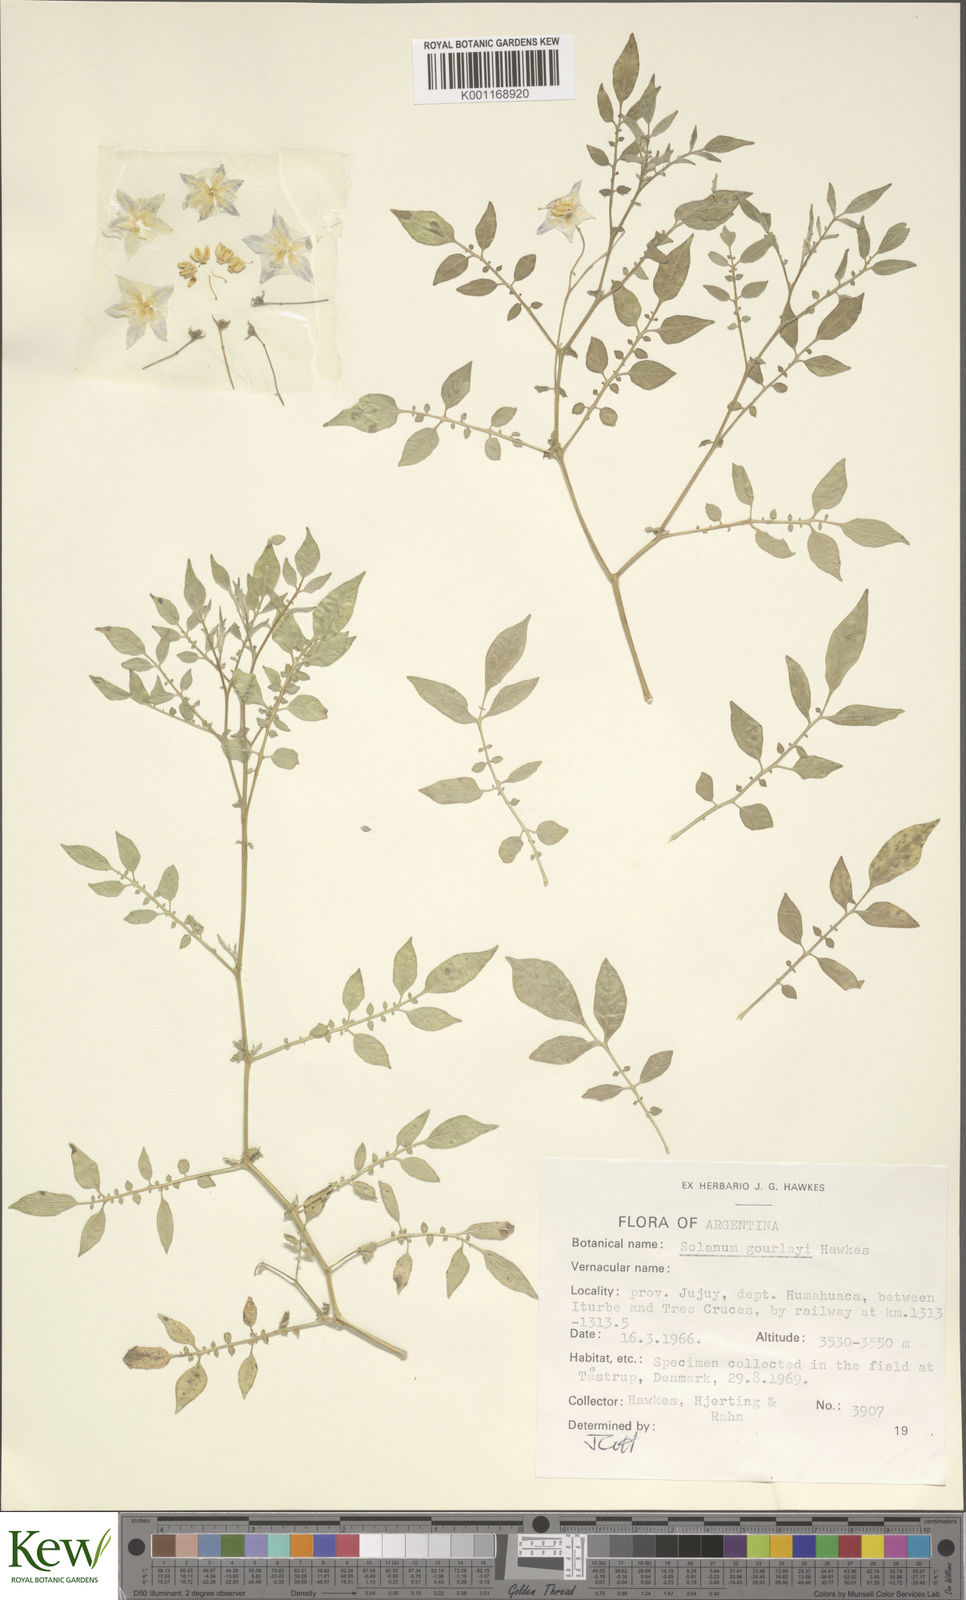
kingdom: Plantae
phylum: Tracheophyta
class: Magnoliopsida
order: Solanales
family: Solanaceae
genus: Solanum
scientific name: Solanum brevicaule
